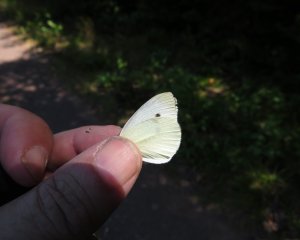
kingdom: Animalia
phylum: Arthropoda
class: Insecta
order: Lepidoptera
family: Pieridae
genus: Pieris
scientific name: Pieris rapae
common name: Cabbage White
